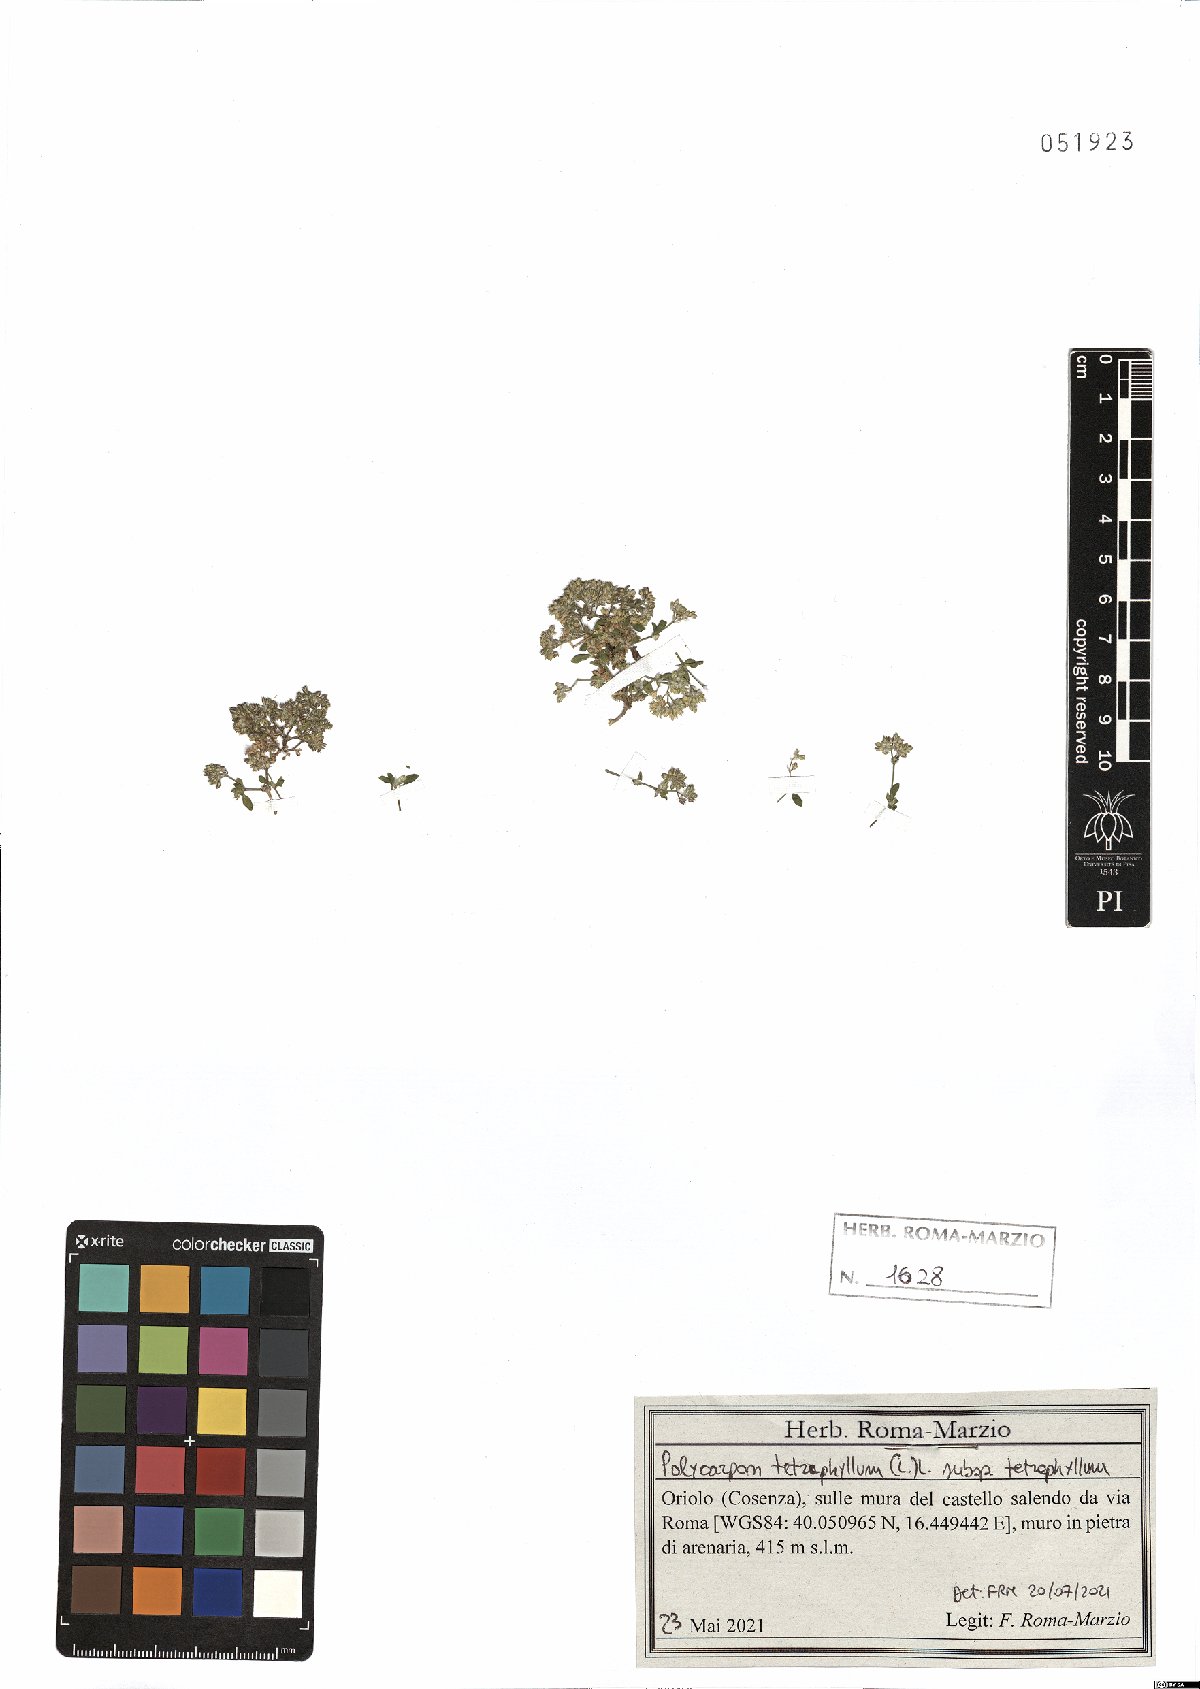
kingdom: Plantae
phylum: Tracheophyta
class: Magnoliopsida
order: Caryophyllales
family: Caryophyllaceae
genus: Polycarpon
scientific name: Polycarpon tetraphyllum
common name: Four-leaved all-seed
